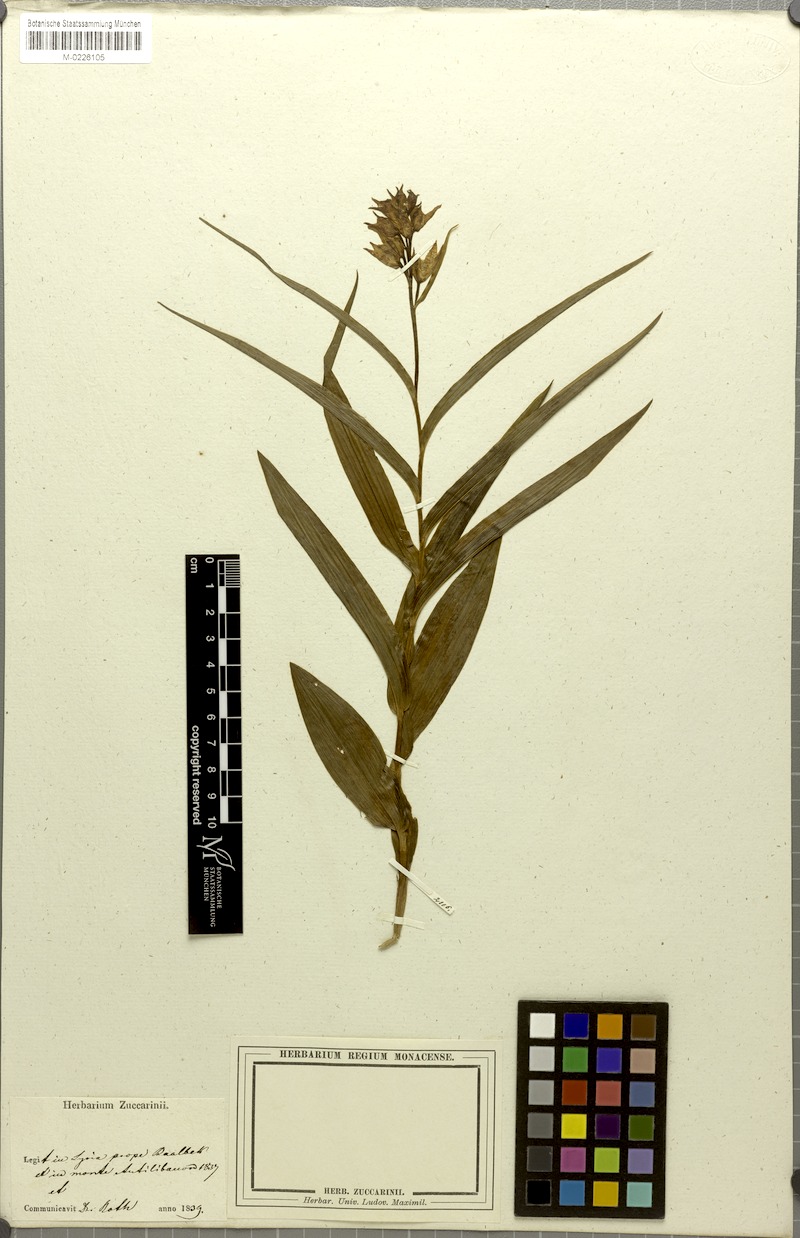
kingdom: Plantae
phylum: Tracheophyta
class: Liliopsida
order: Asparagales
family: Orchidaceae
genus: Cephalanthera
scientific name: Cephalanthera longifolia
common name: Narrow-leaved helleborine
